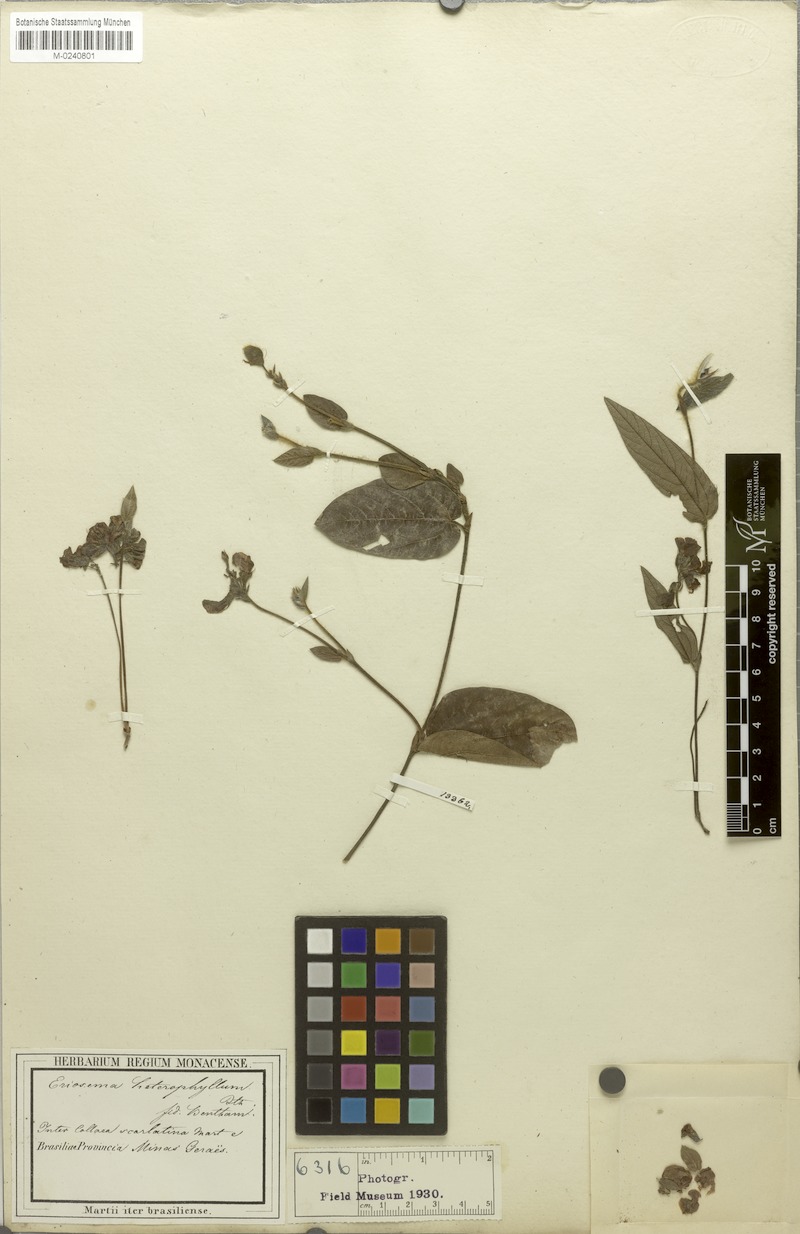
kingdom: Plantae
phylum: Tracheophyta
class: Magnoliopsida
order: Fabales
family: Fabaceae
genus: Eriosema
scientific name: Eriosema heterophyllum
